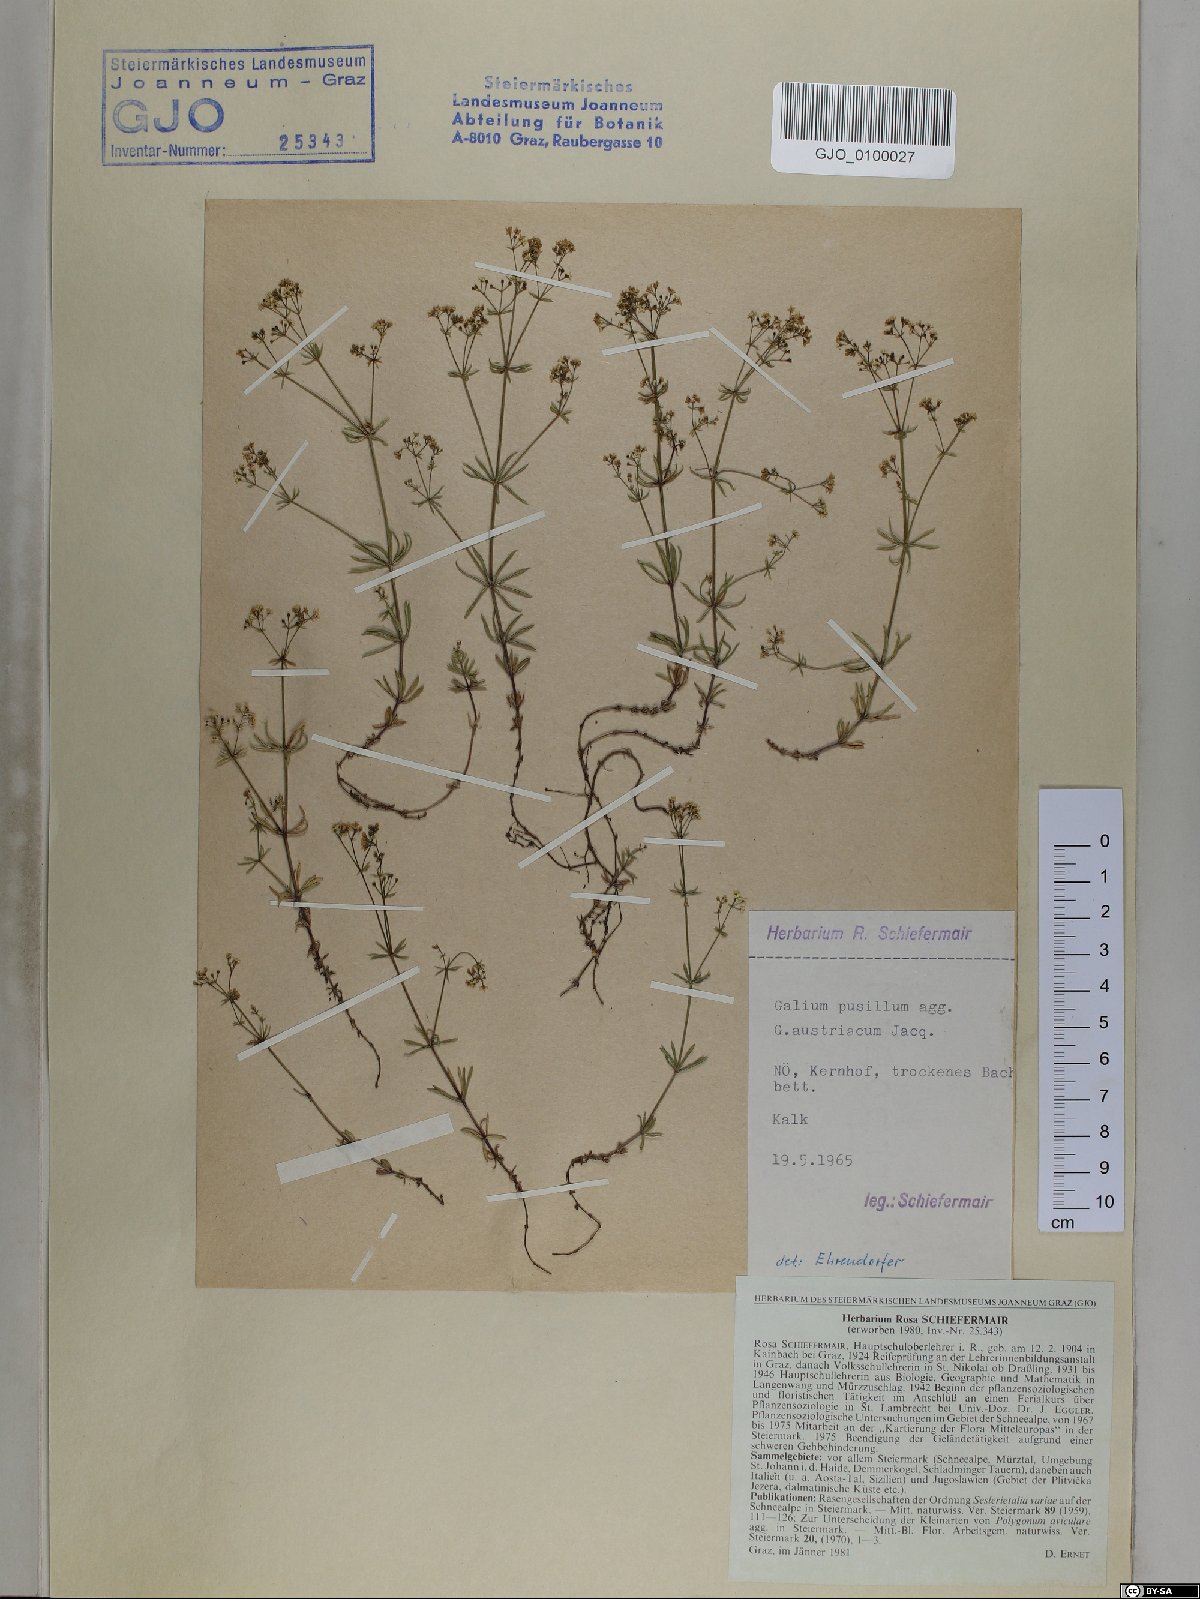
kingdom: Plantae
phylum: Tracheophyta
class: Magnoliopsida
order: Gentianales
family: Rubiaceae
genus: Galium
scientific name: Galium austriacum
